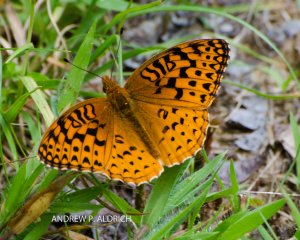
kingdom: Animalia
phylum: Arthropoda
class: Insecta
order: Lepidoptera
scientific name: Lepidoptera
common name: Butterflies
